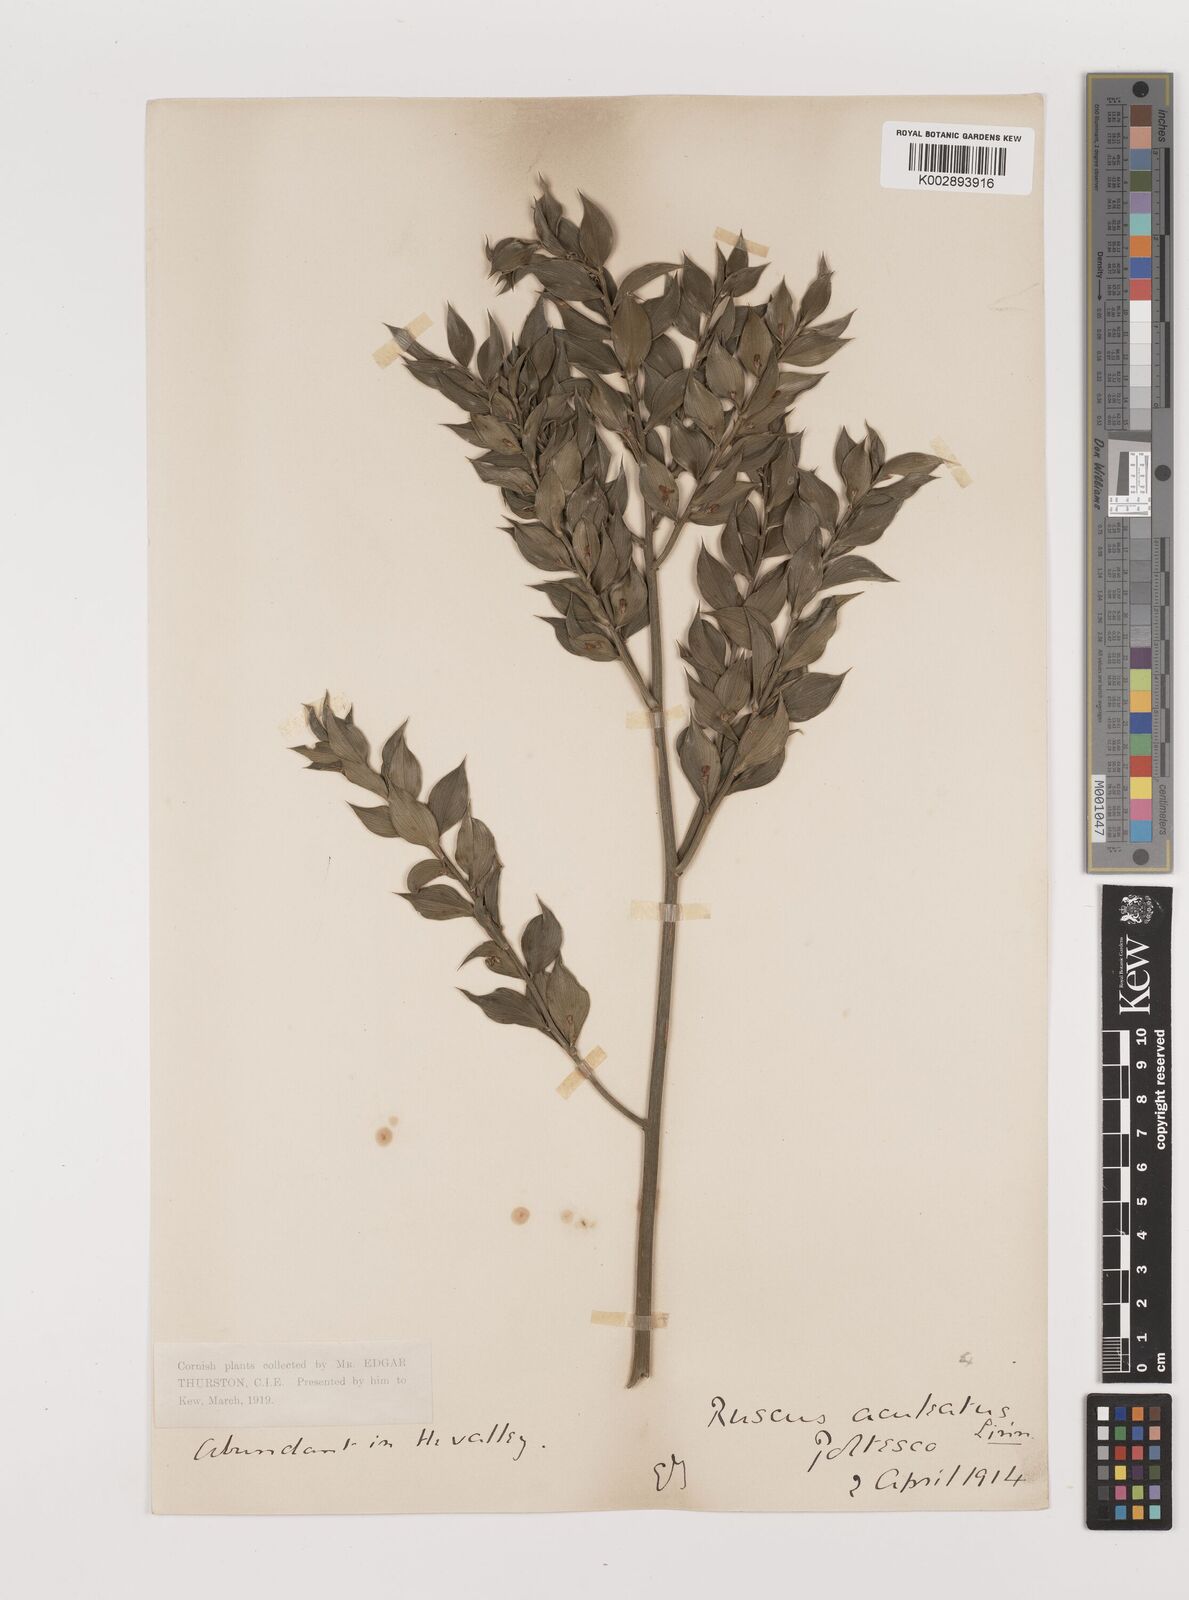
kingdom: Plantae
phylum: Tracheophyta
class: Liliopsida
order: Asparagales
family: Asparagaceae
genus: Ruscus
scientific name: Ruscus aculeatus
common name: Butcher's-broom
